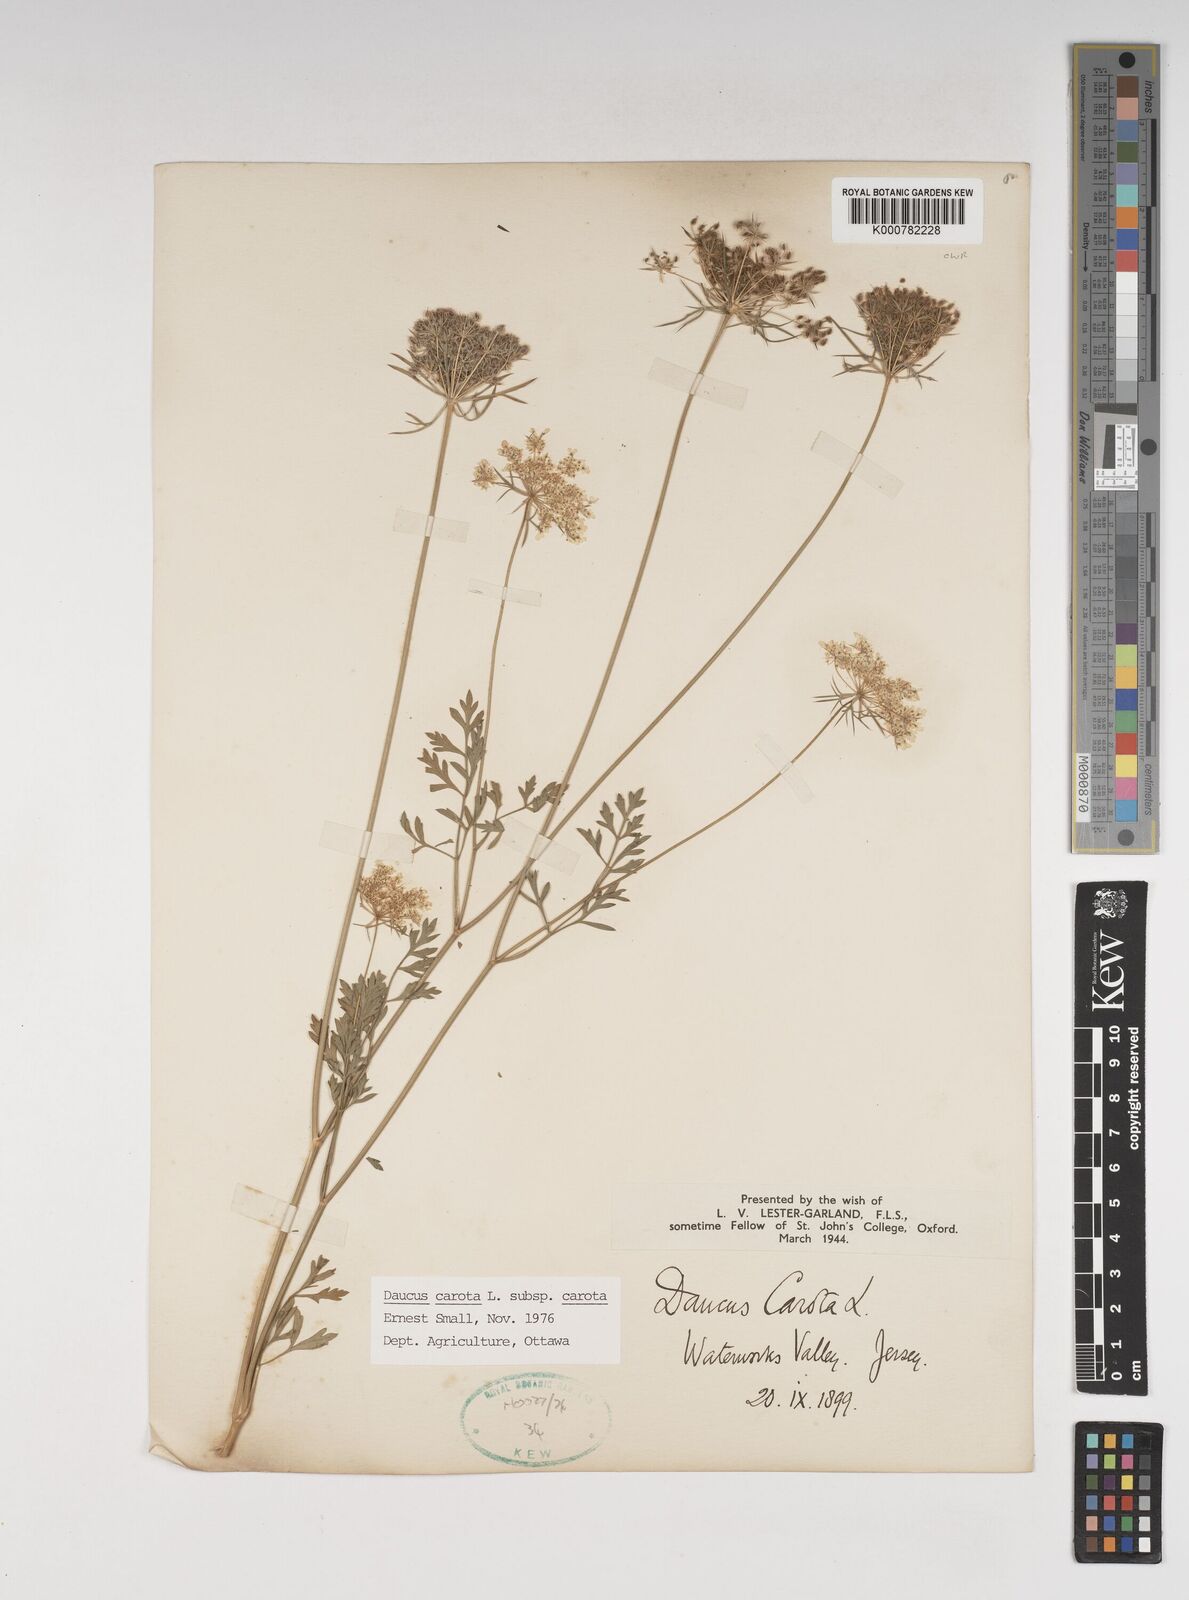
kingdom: Plantae
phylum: Tracheophyta
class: Magnoliopsida
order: Apiales
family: Apiaceae
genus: Daucus
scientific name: Daucus carota
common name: Wild carrot
